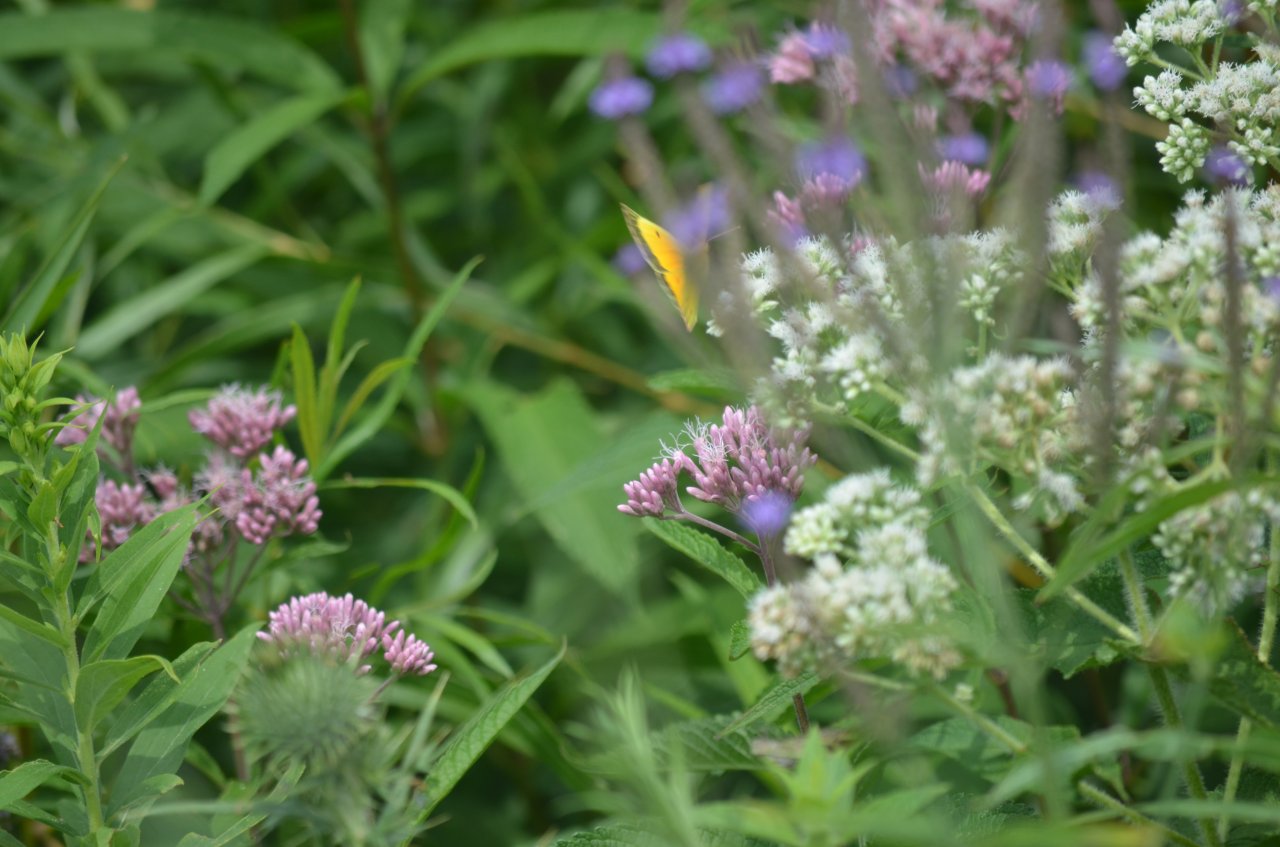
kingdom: Animalia
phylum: Arthropoda
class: Insecta
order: Lepidoptera
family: Pieridae
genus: Colias
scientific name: Colias eurytheme
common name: Orange Sulphur
